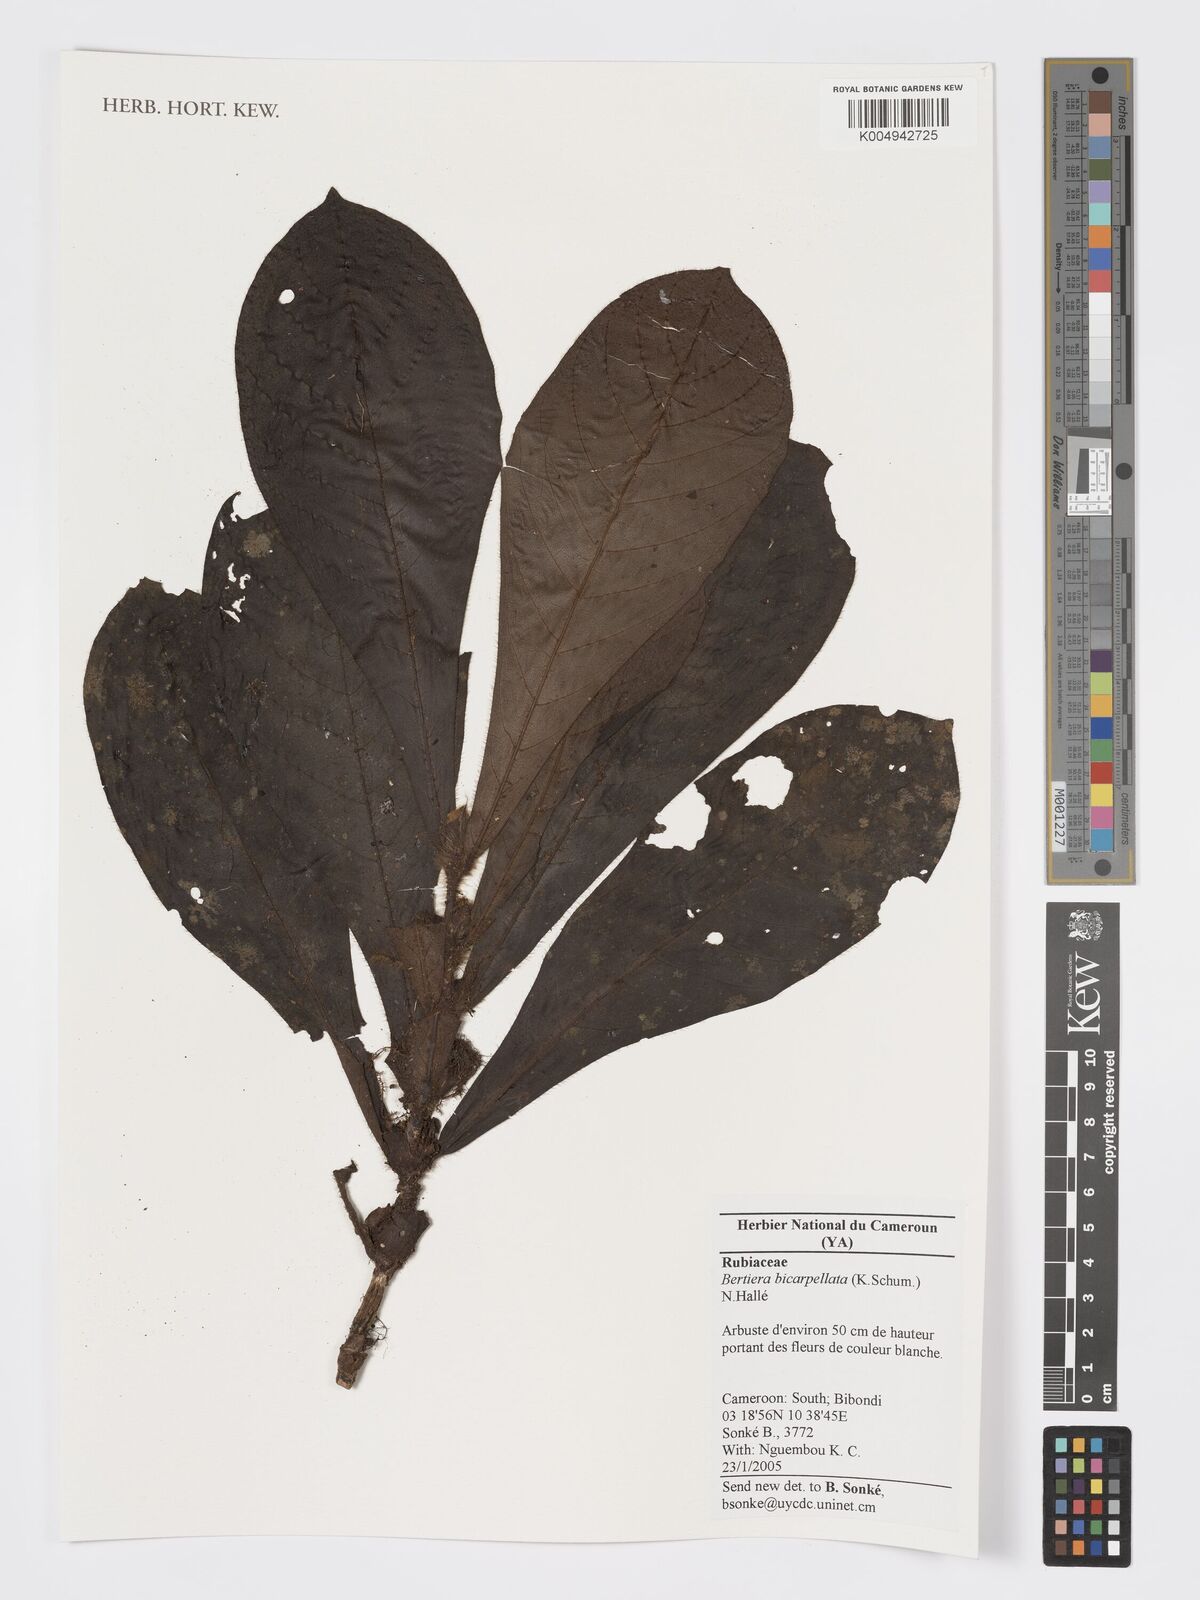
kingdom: Plantae
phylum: Tracheophyta
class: Magnoliopsida
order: Gentianales
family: Rubiaceae
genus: Bertiera
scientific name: Bertiera bicarpellata
